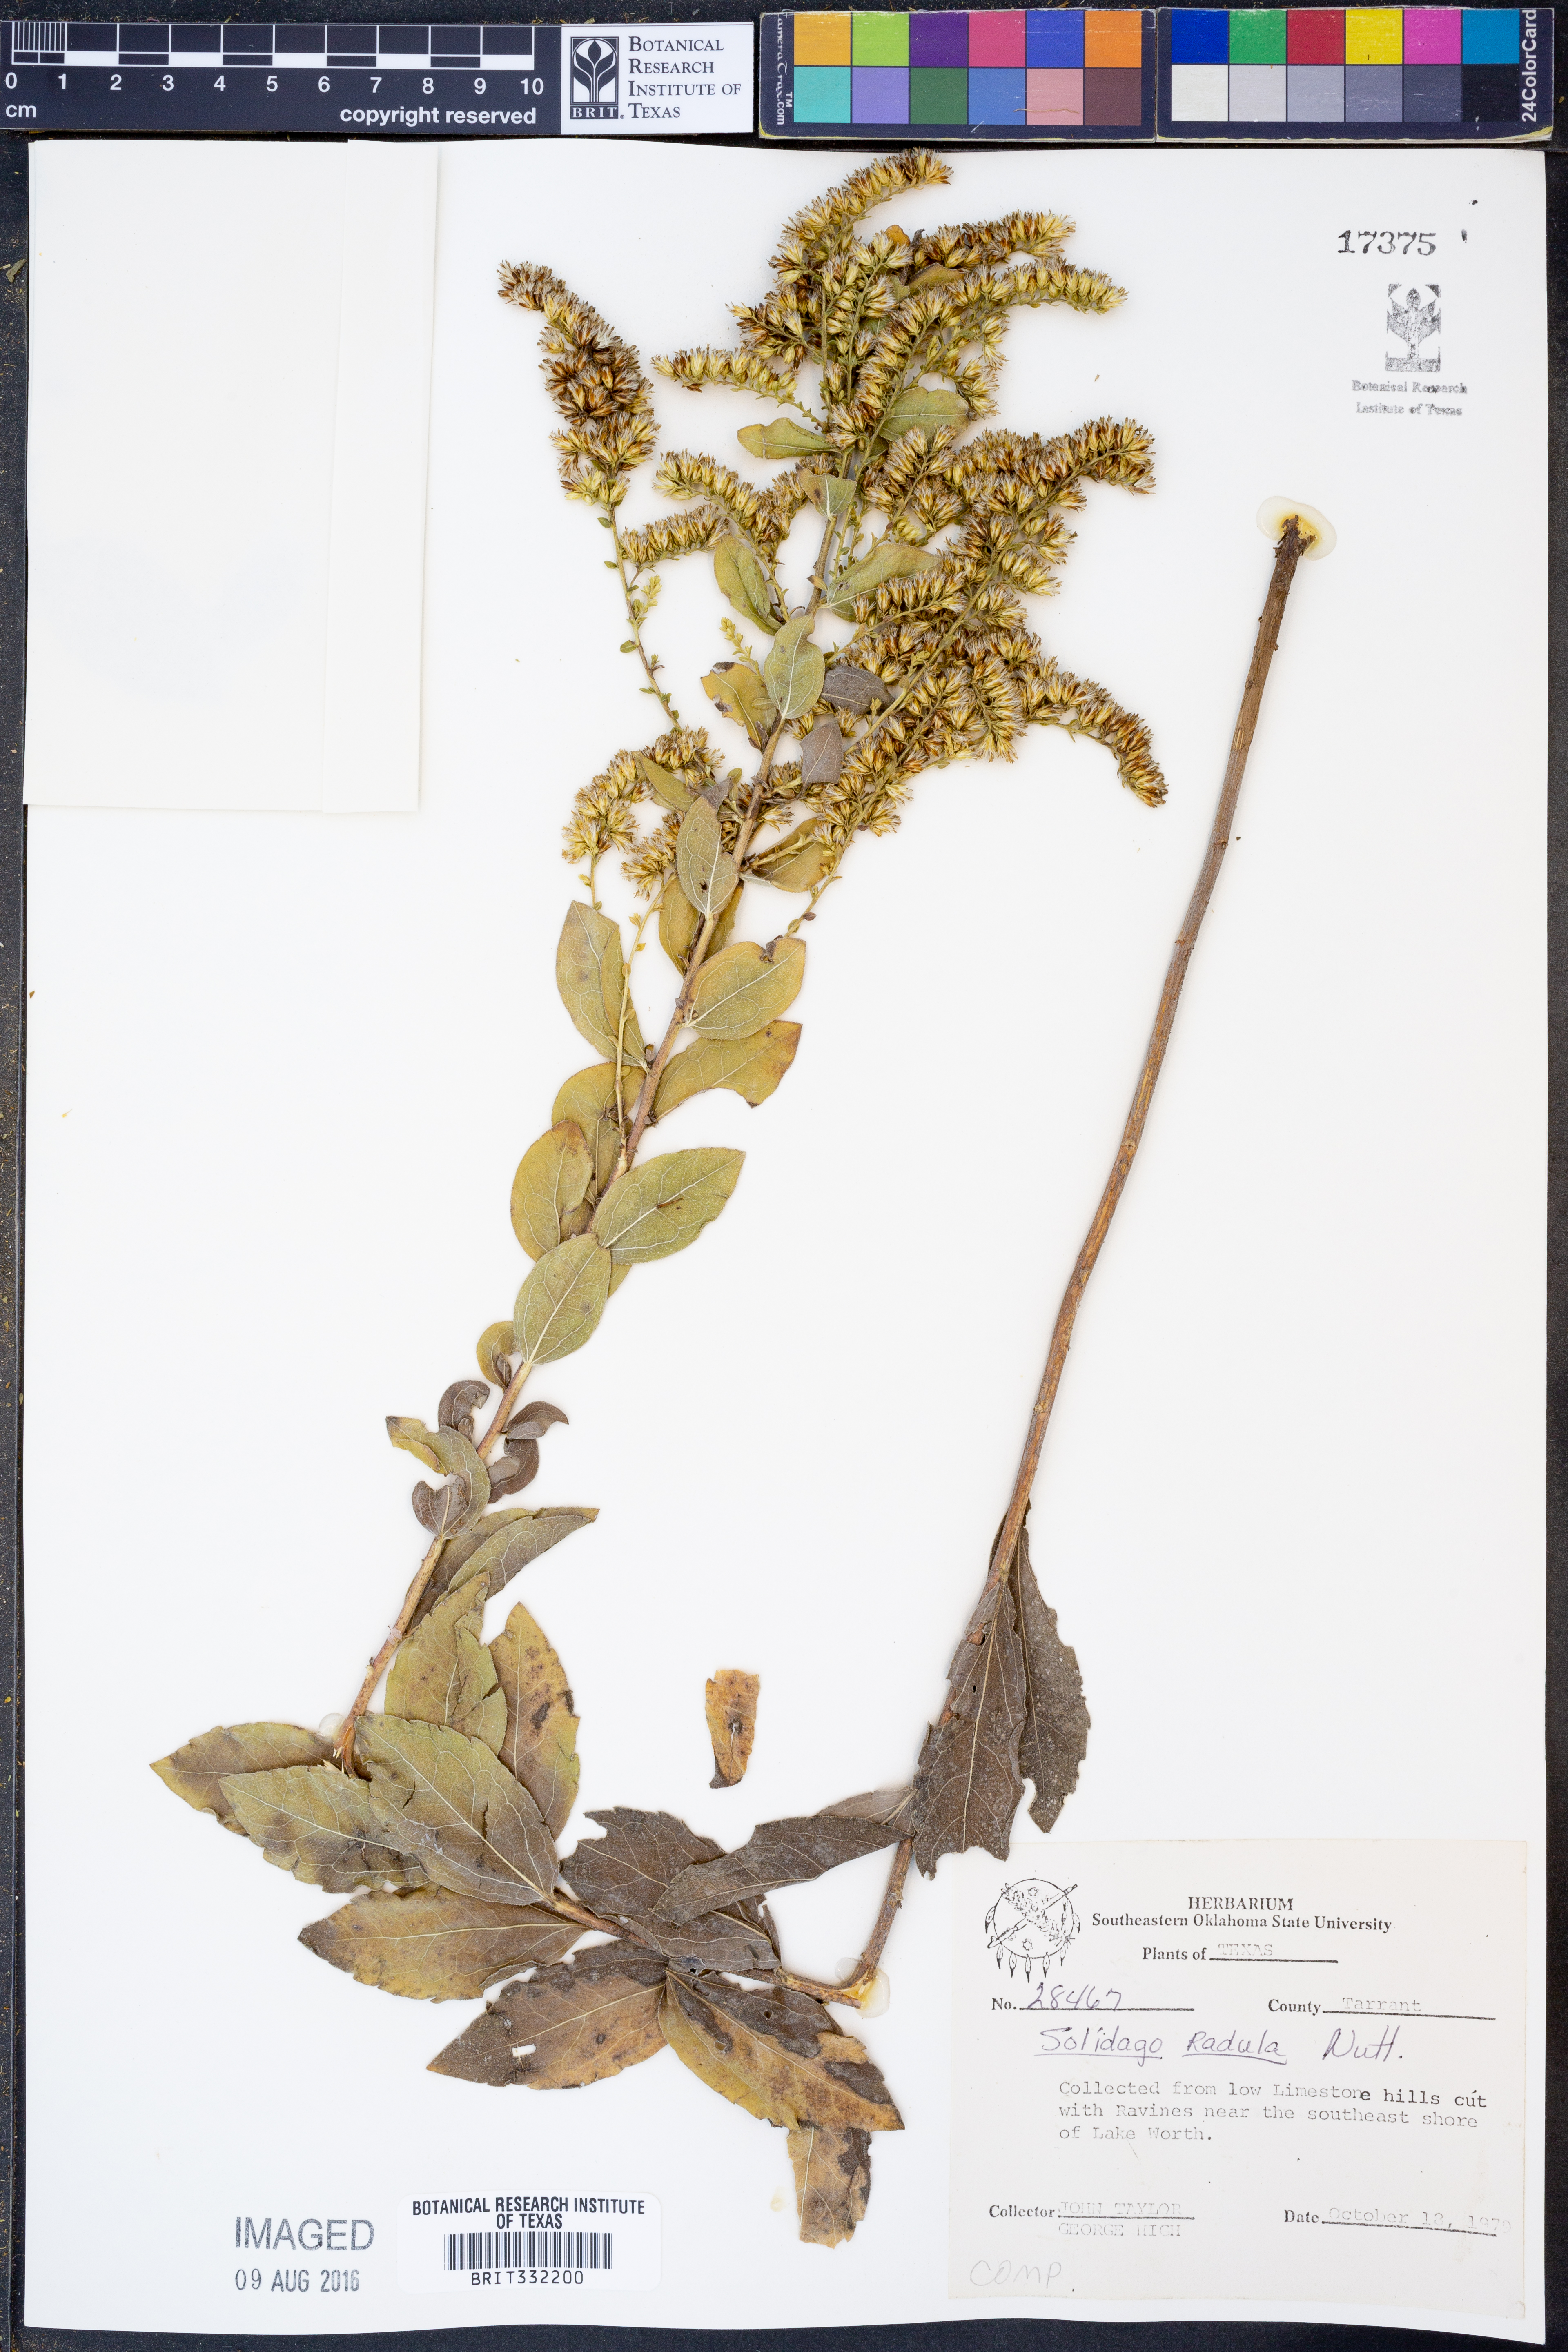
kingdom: Plantae
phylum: Tracheophyta
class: Magnoliopsida
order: Asterales
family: Asteraceae
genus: Solidago
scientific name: Solidago radula
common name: Western rough goldenrod
